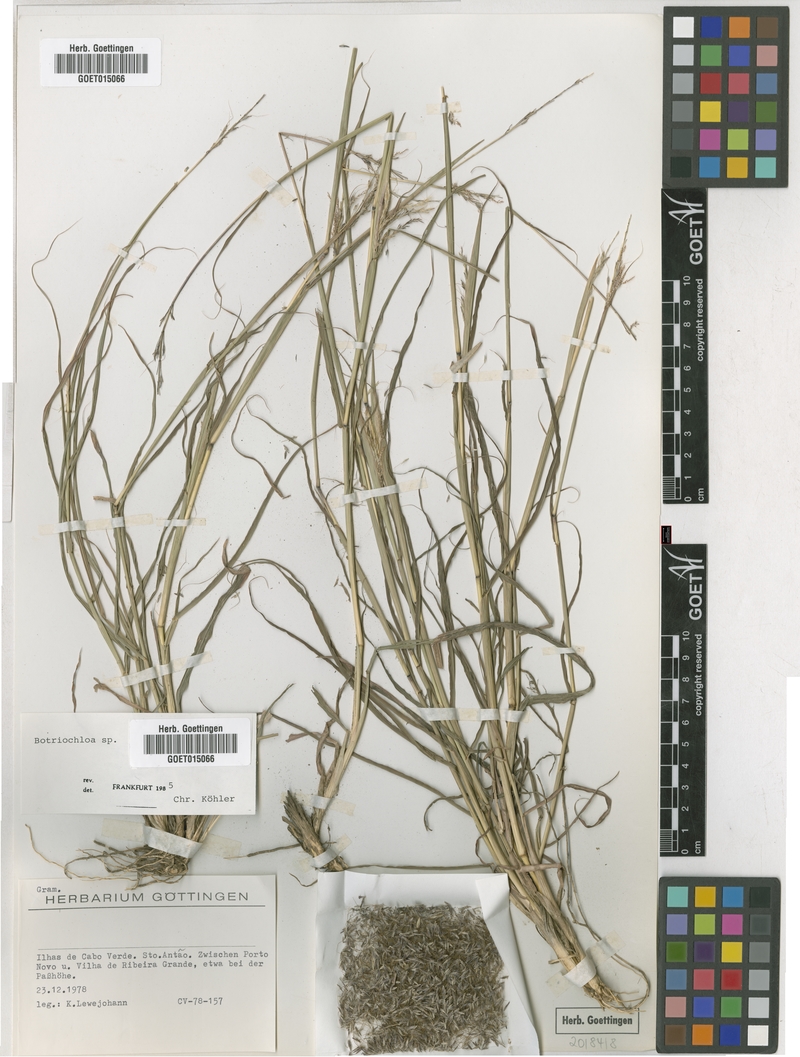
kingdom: Plantae
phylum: Tracheophyta
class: Liliopsida
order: Poales
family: Poaceae
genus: Bothriochloa
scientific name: Bothriochloa
